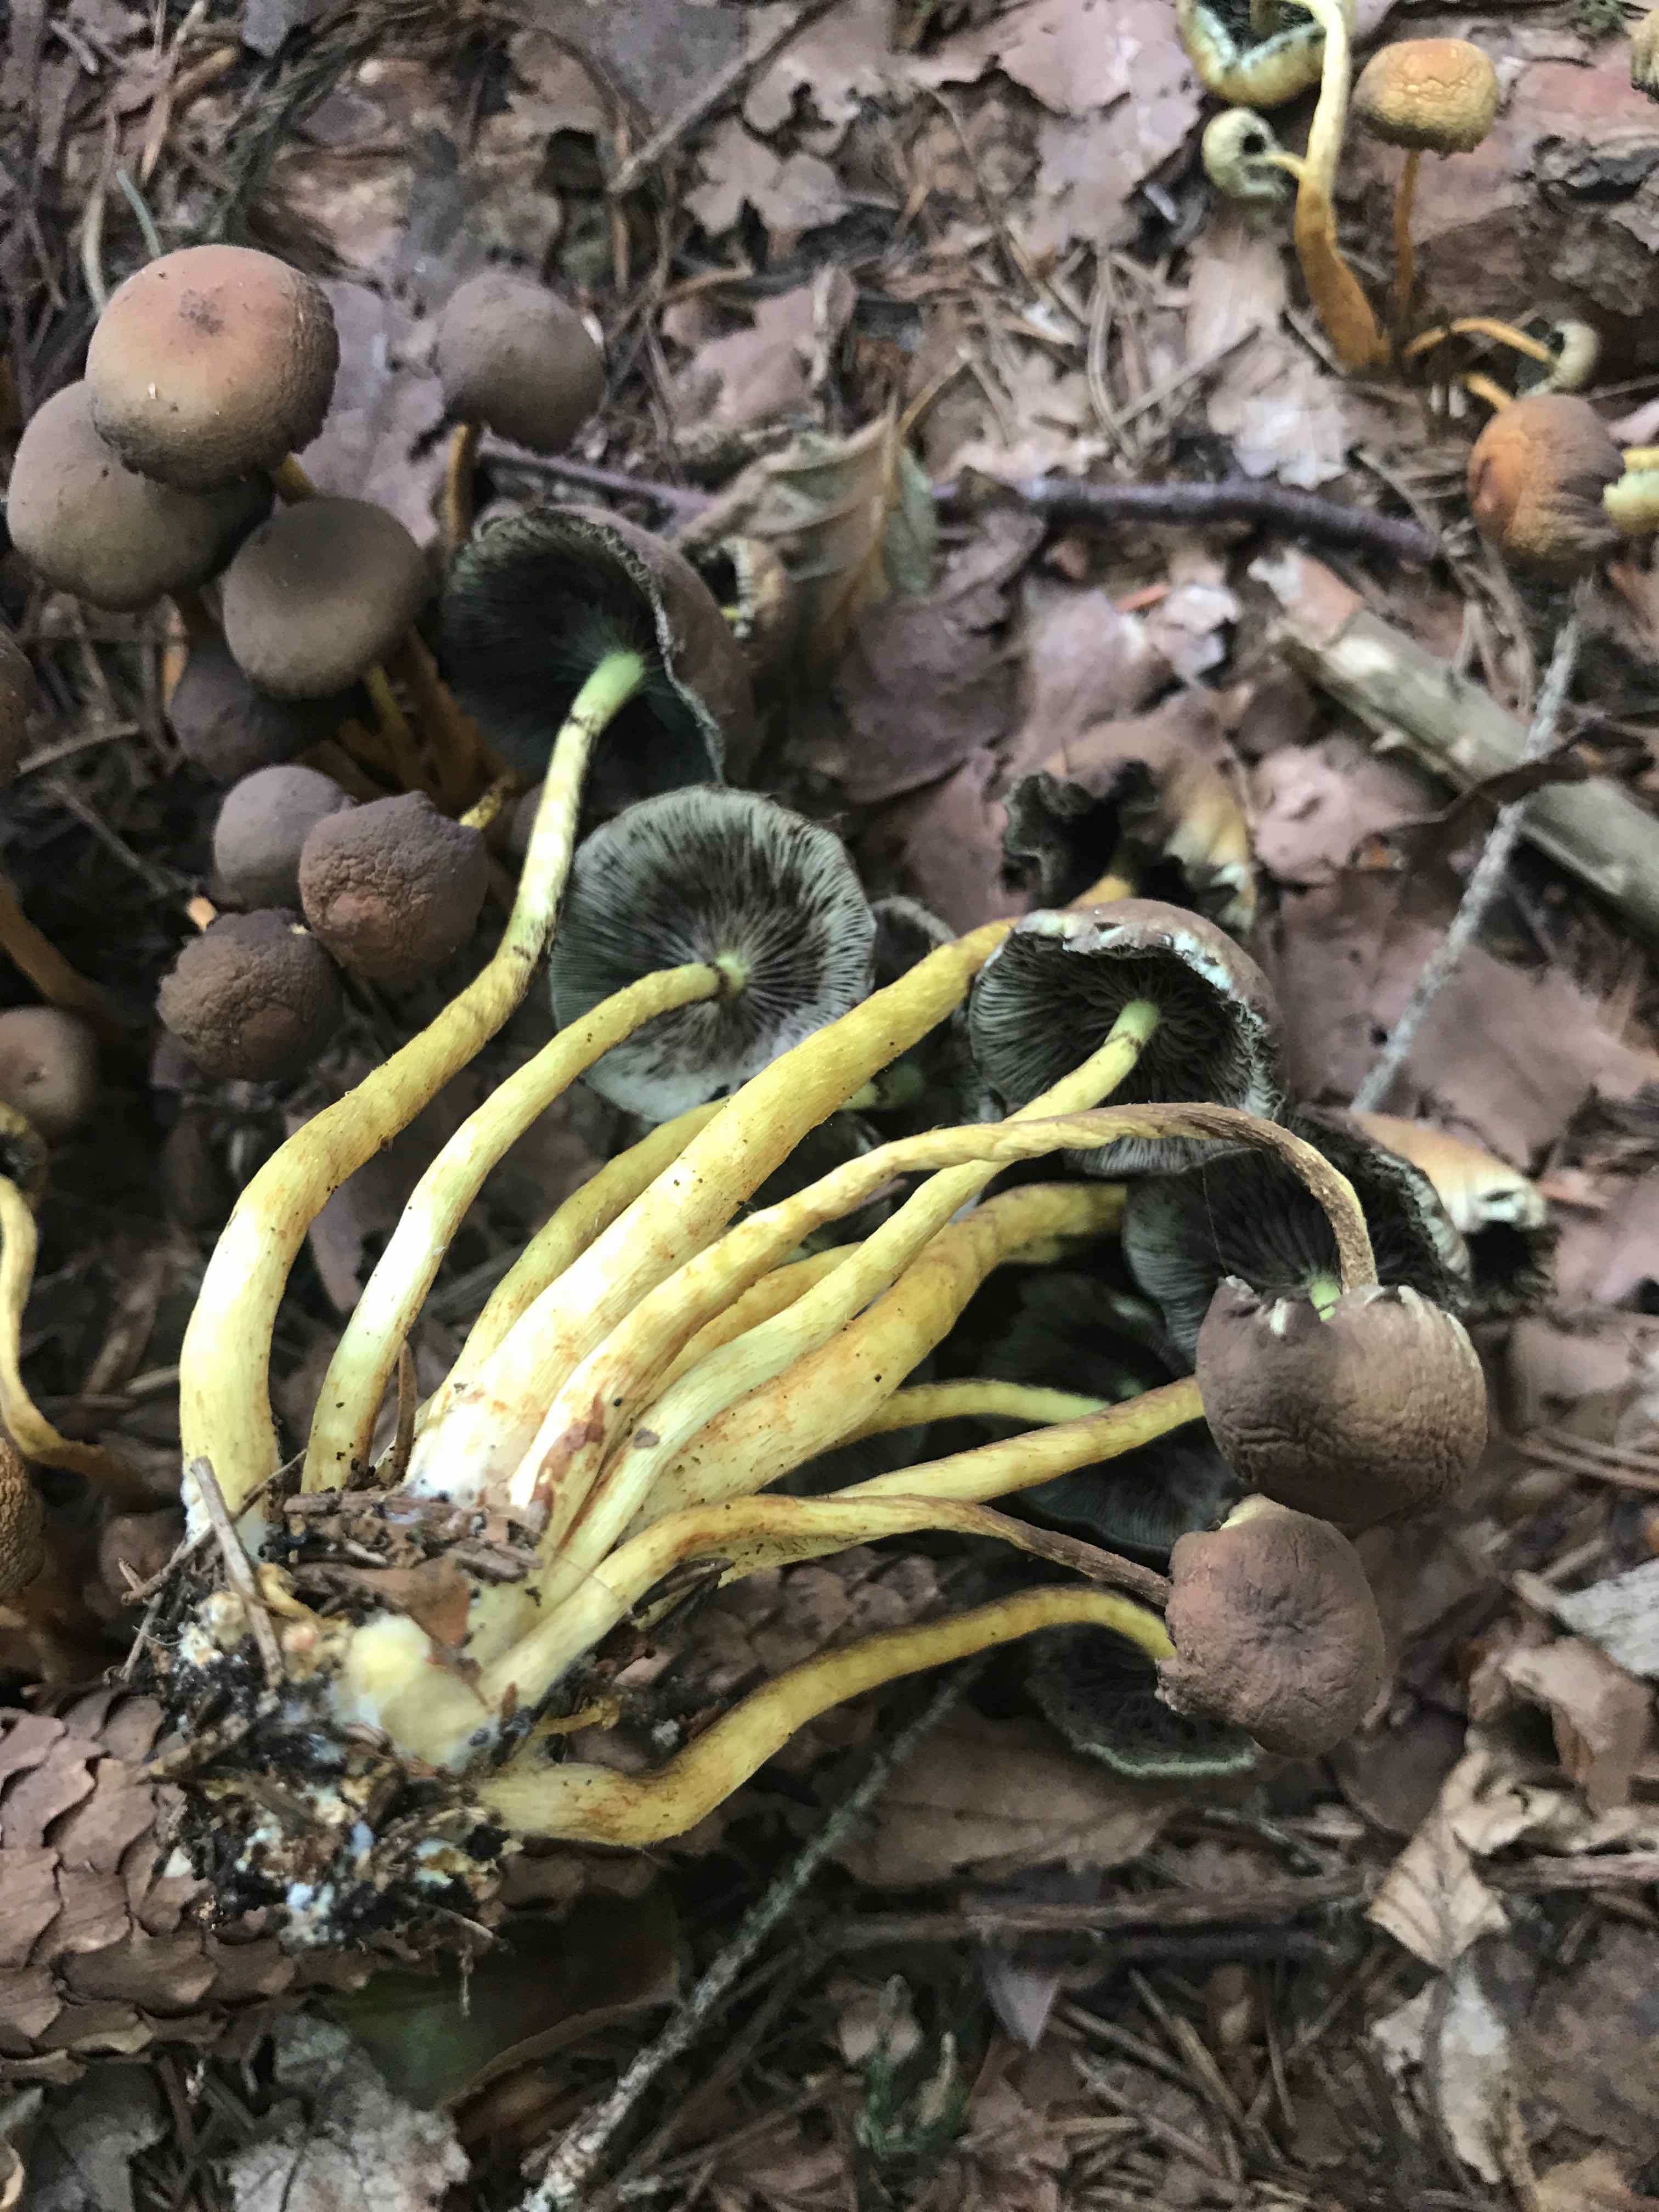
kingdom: Fungi
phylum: Basidiomycota
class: Agaricomycetes
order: Agaricales
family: Strophariaceae
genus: Hypholoma
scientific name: Hypholoma fasciculare
